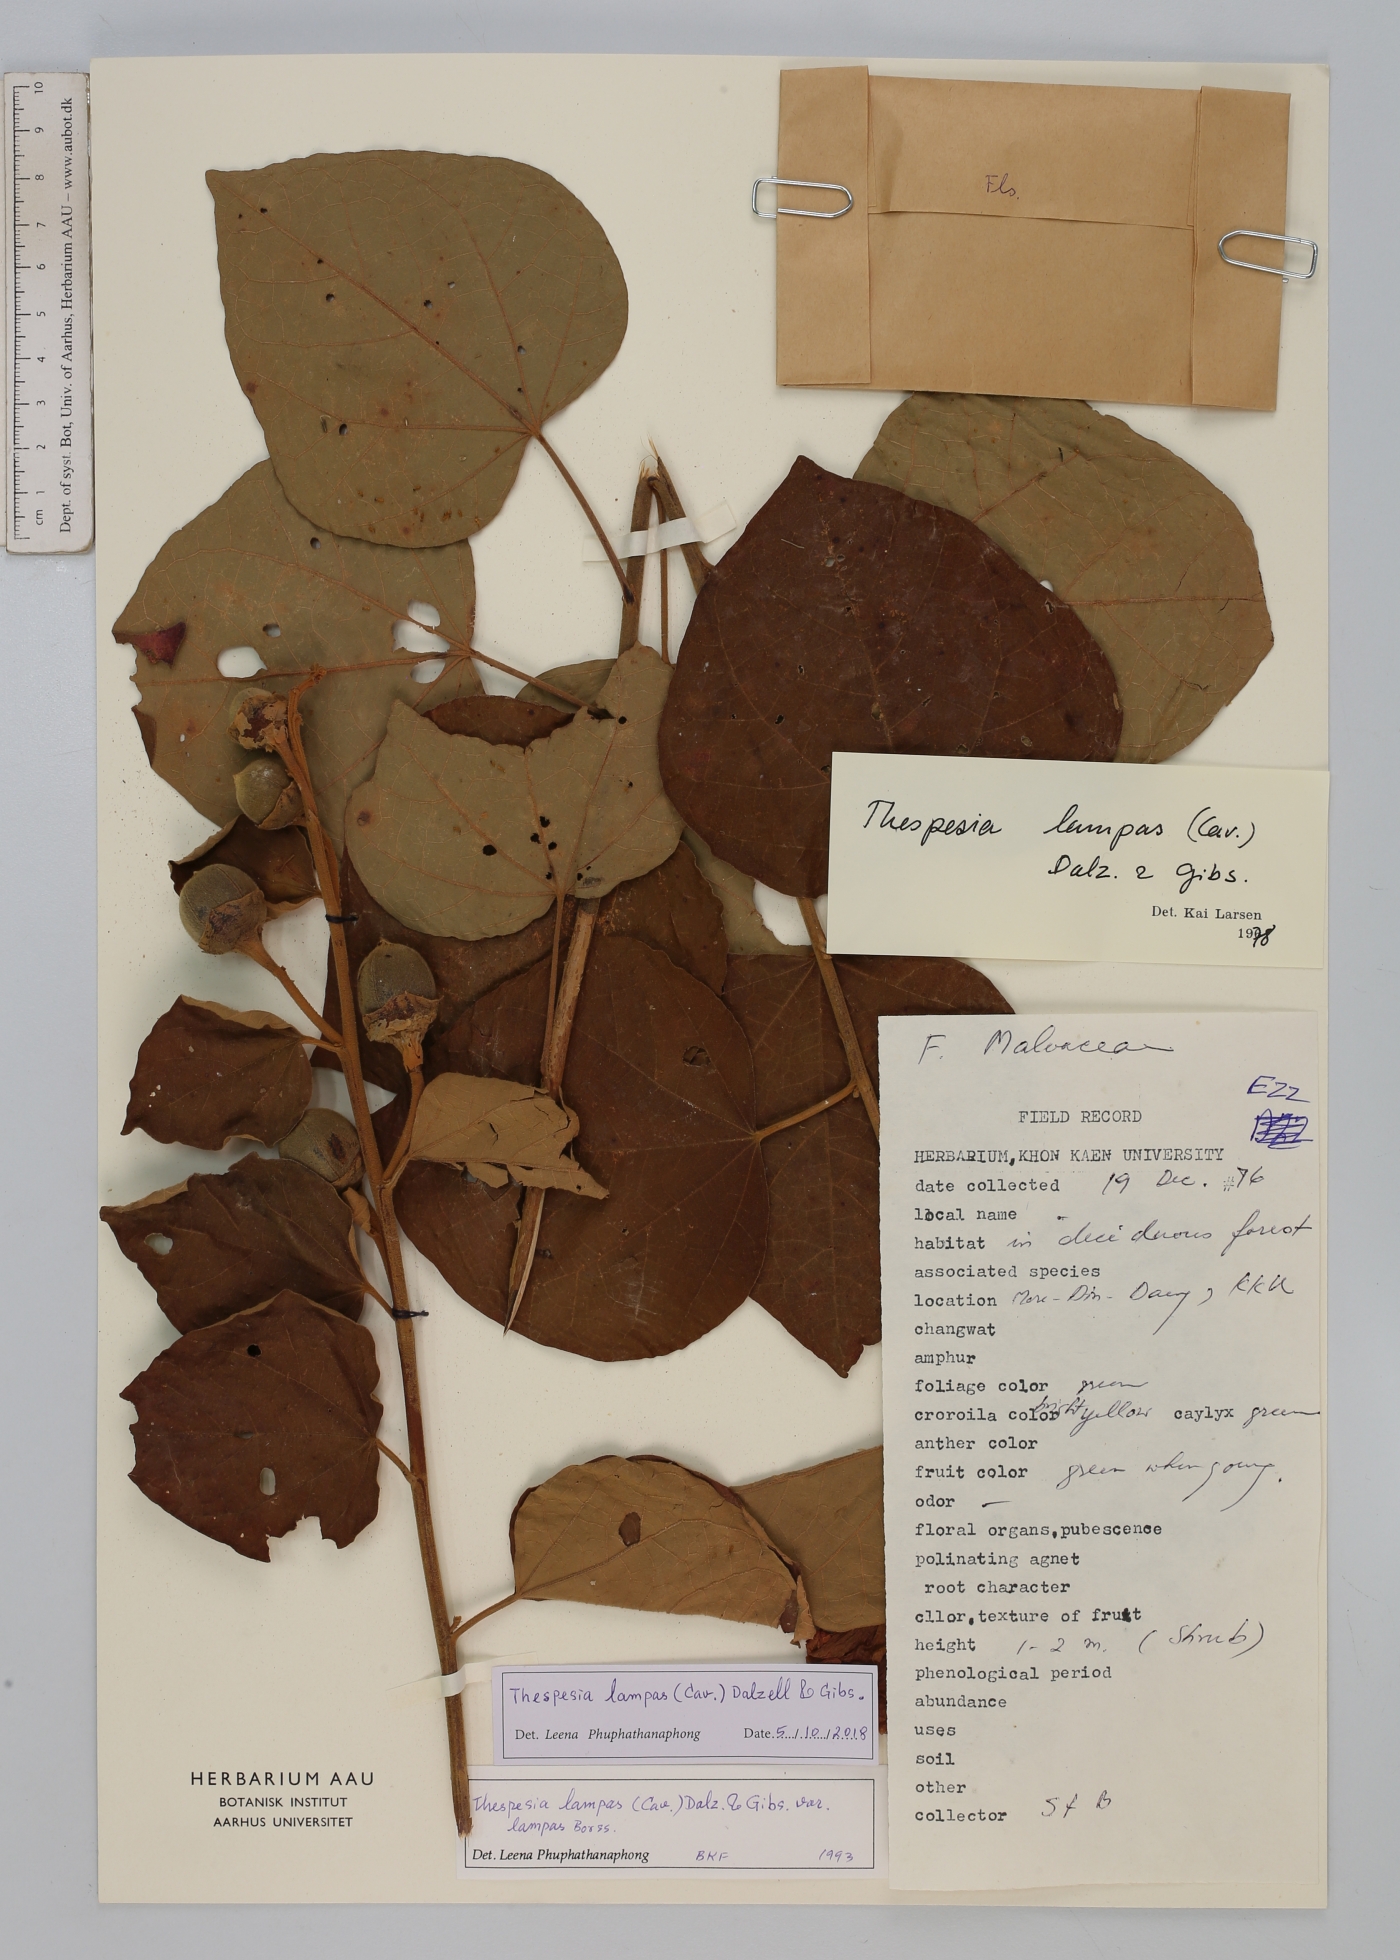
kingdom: Plantae
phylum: Tracheophyta
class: Magnoliopsida
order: Malvales
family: Malvaceae
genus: Thespesia
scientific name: Thespesia lampas
